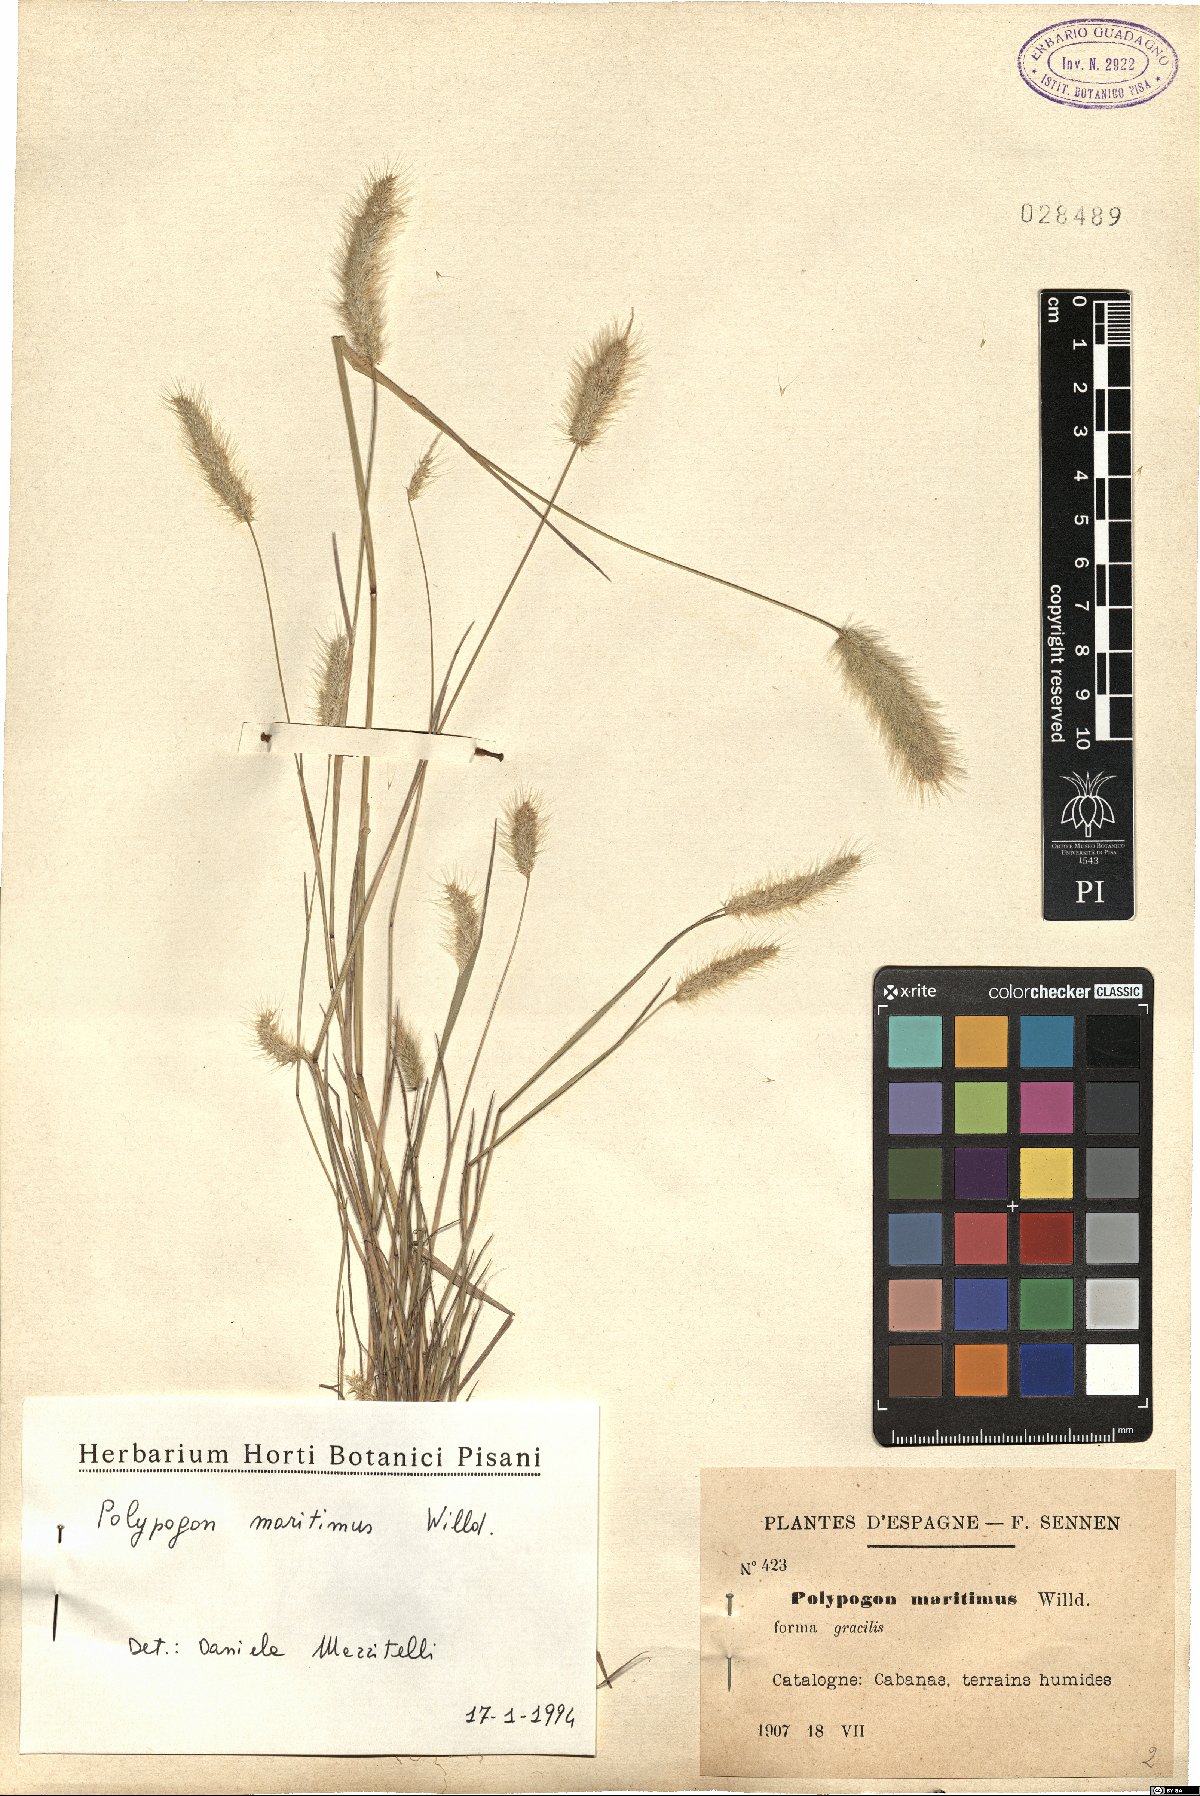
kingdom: Plantae
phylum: Tracheophyta
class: Liliopsida
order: Poales
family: Poaceae
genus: Polypogon
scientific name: Polypogon maritimus
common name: Mediterranean rabbitsfoot grass
